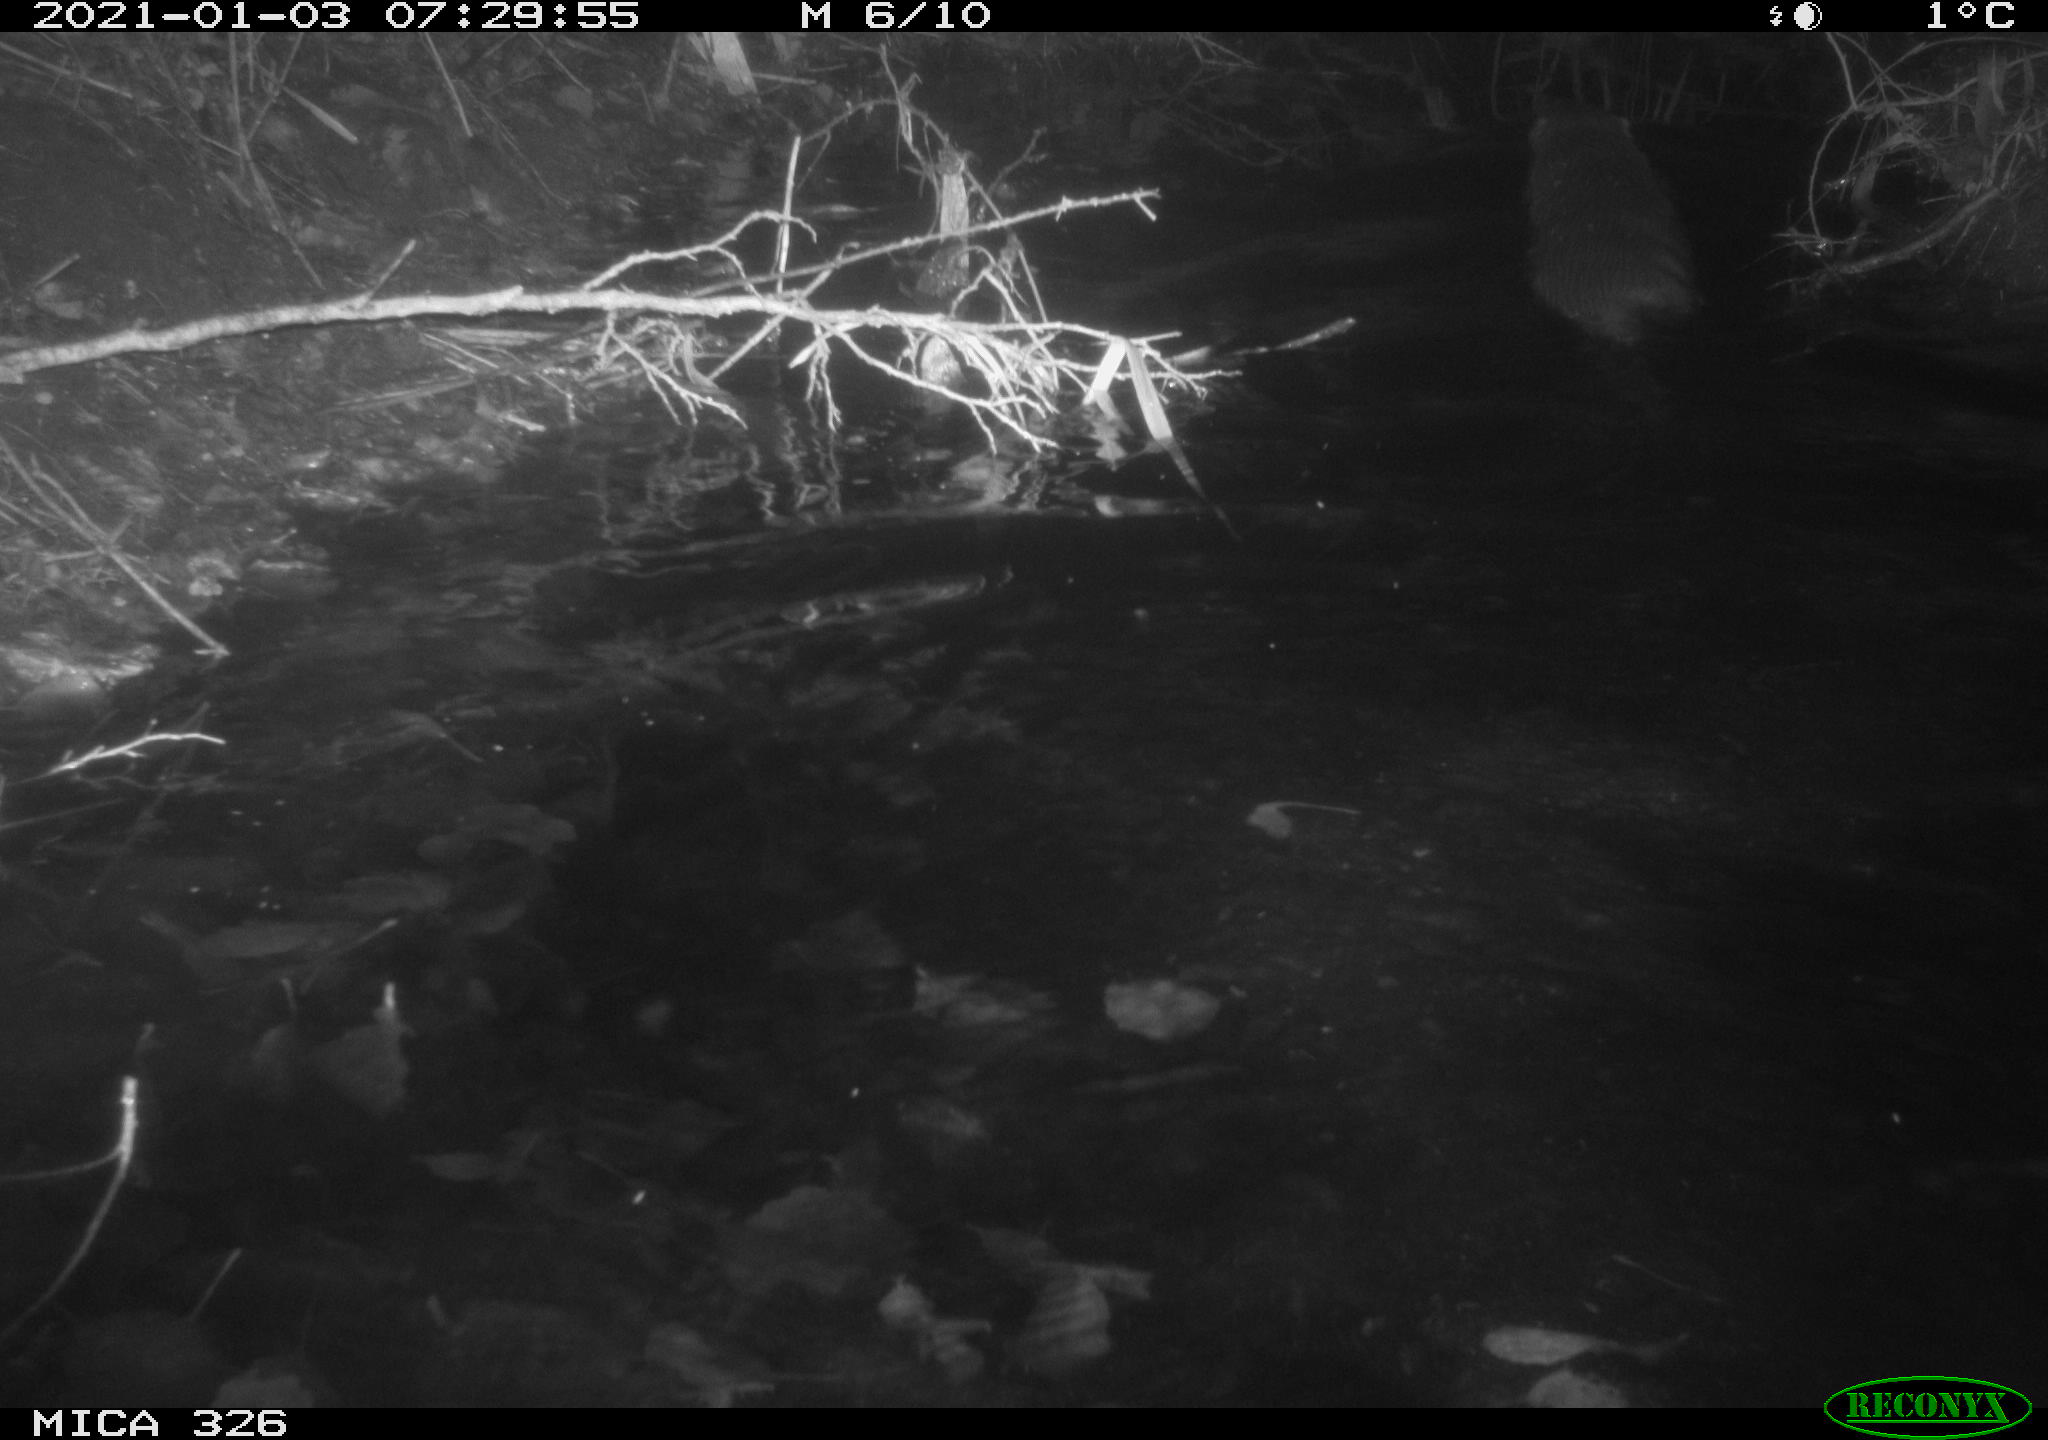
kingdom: Animalia
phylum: Chordata
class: Mammalia
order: Carnivora
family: Mustelidae
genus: Lutra
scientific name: Lutra lutra
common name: European otter
